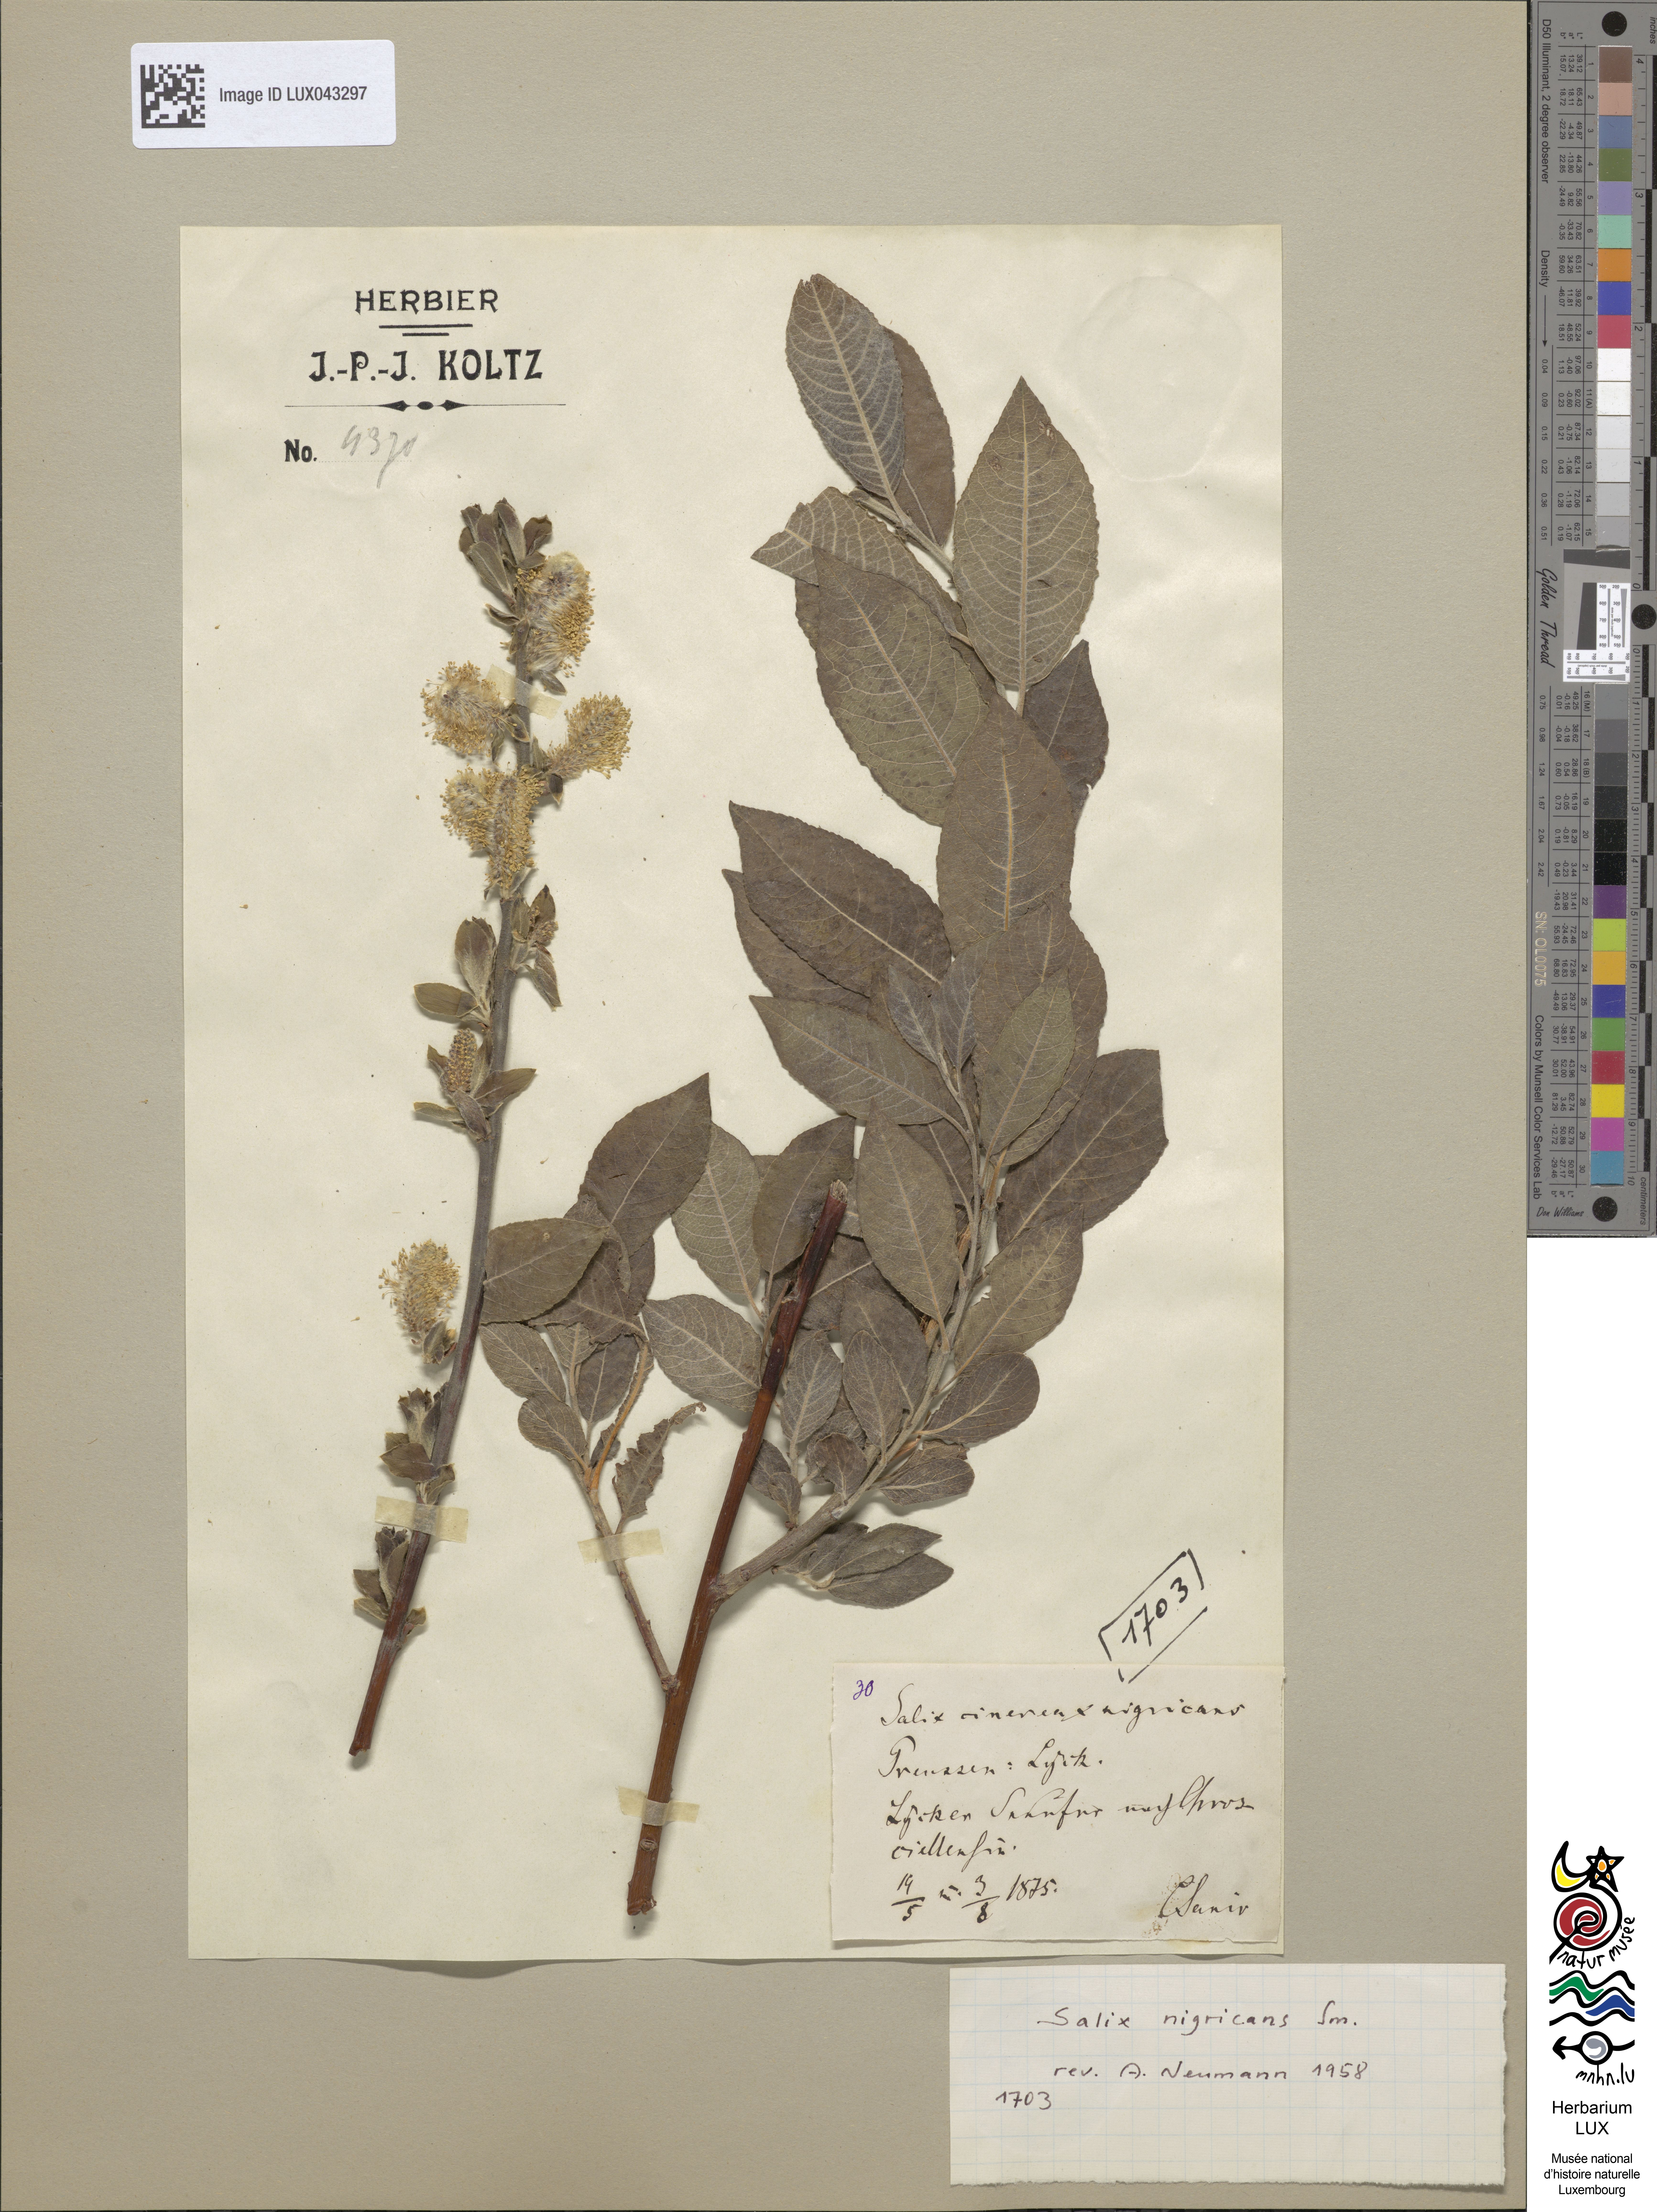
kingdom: Plantae
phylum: Tracheophyta
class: Magnoliopsida
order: Malpighiales
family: Salicaceae
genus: Salix
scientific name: Salix cinerea
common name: Common sallow
